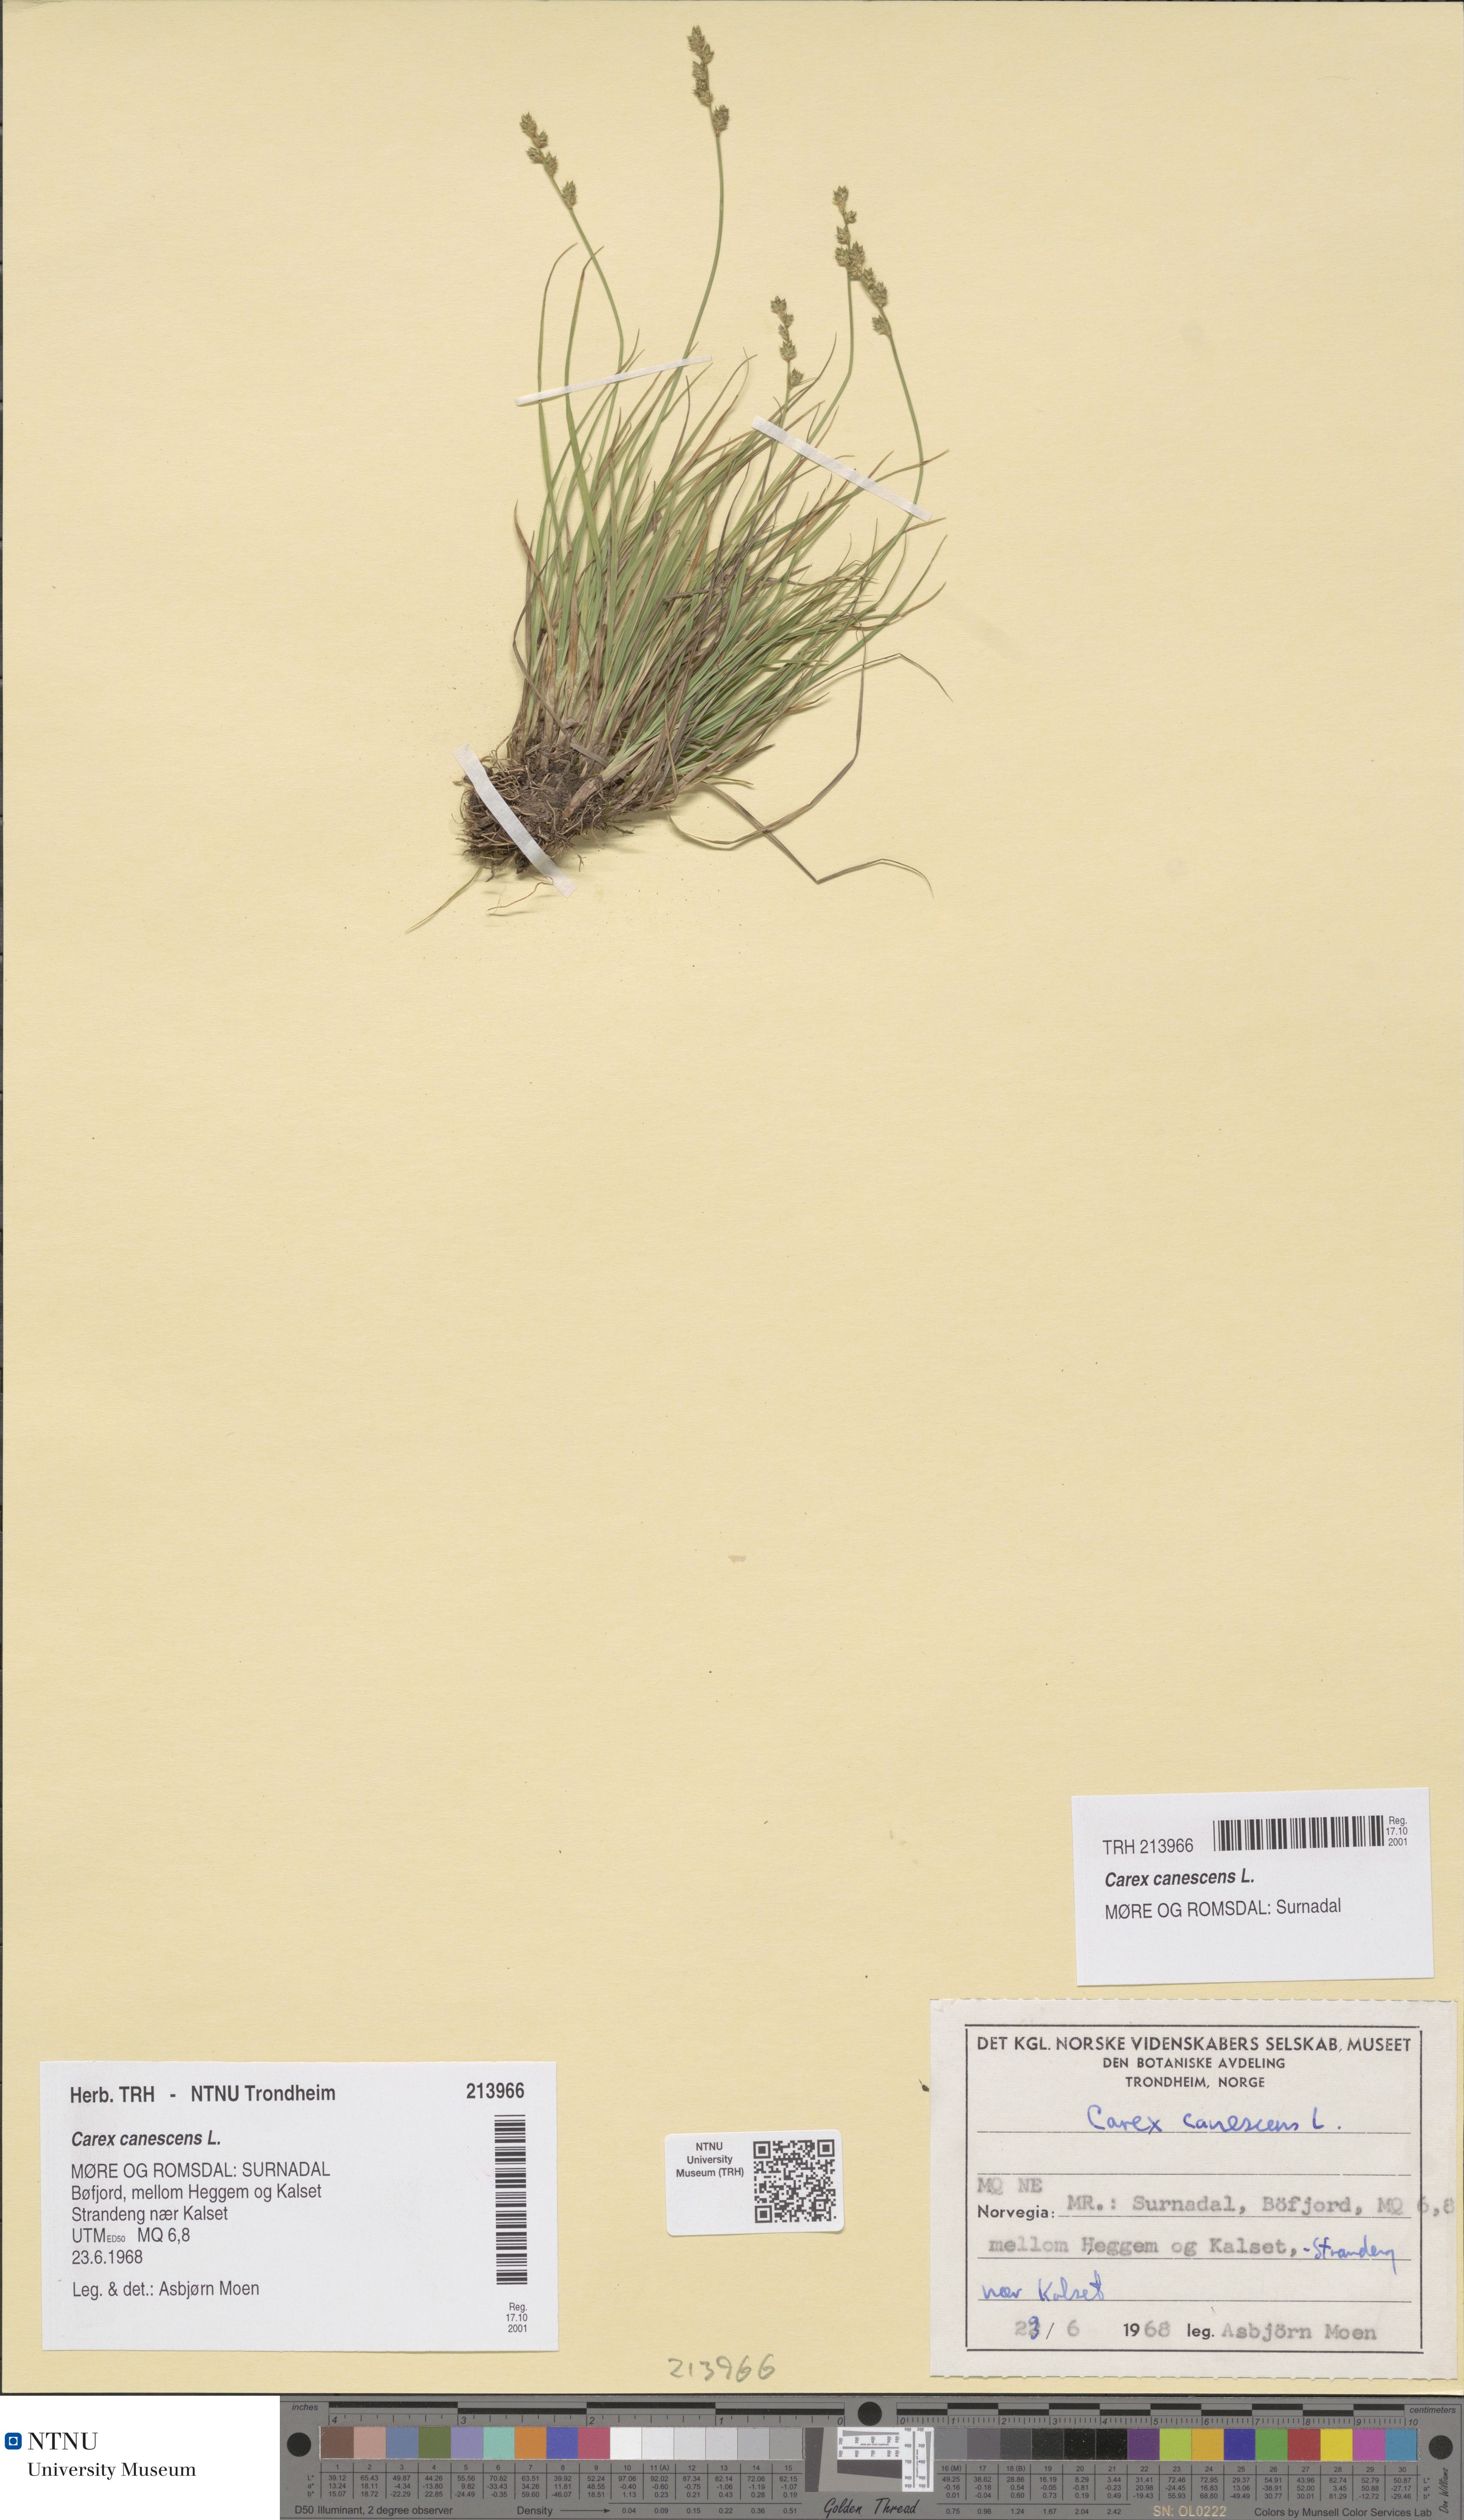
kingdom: Plantae
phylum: Tracheophyta
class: Liliopsida
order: Poales
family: Cyperaceae
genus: Carex
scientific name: Carex canescens
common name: White sedge
